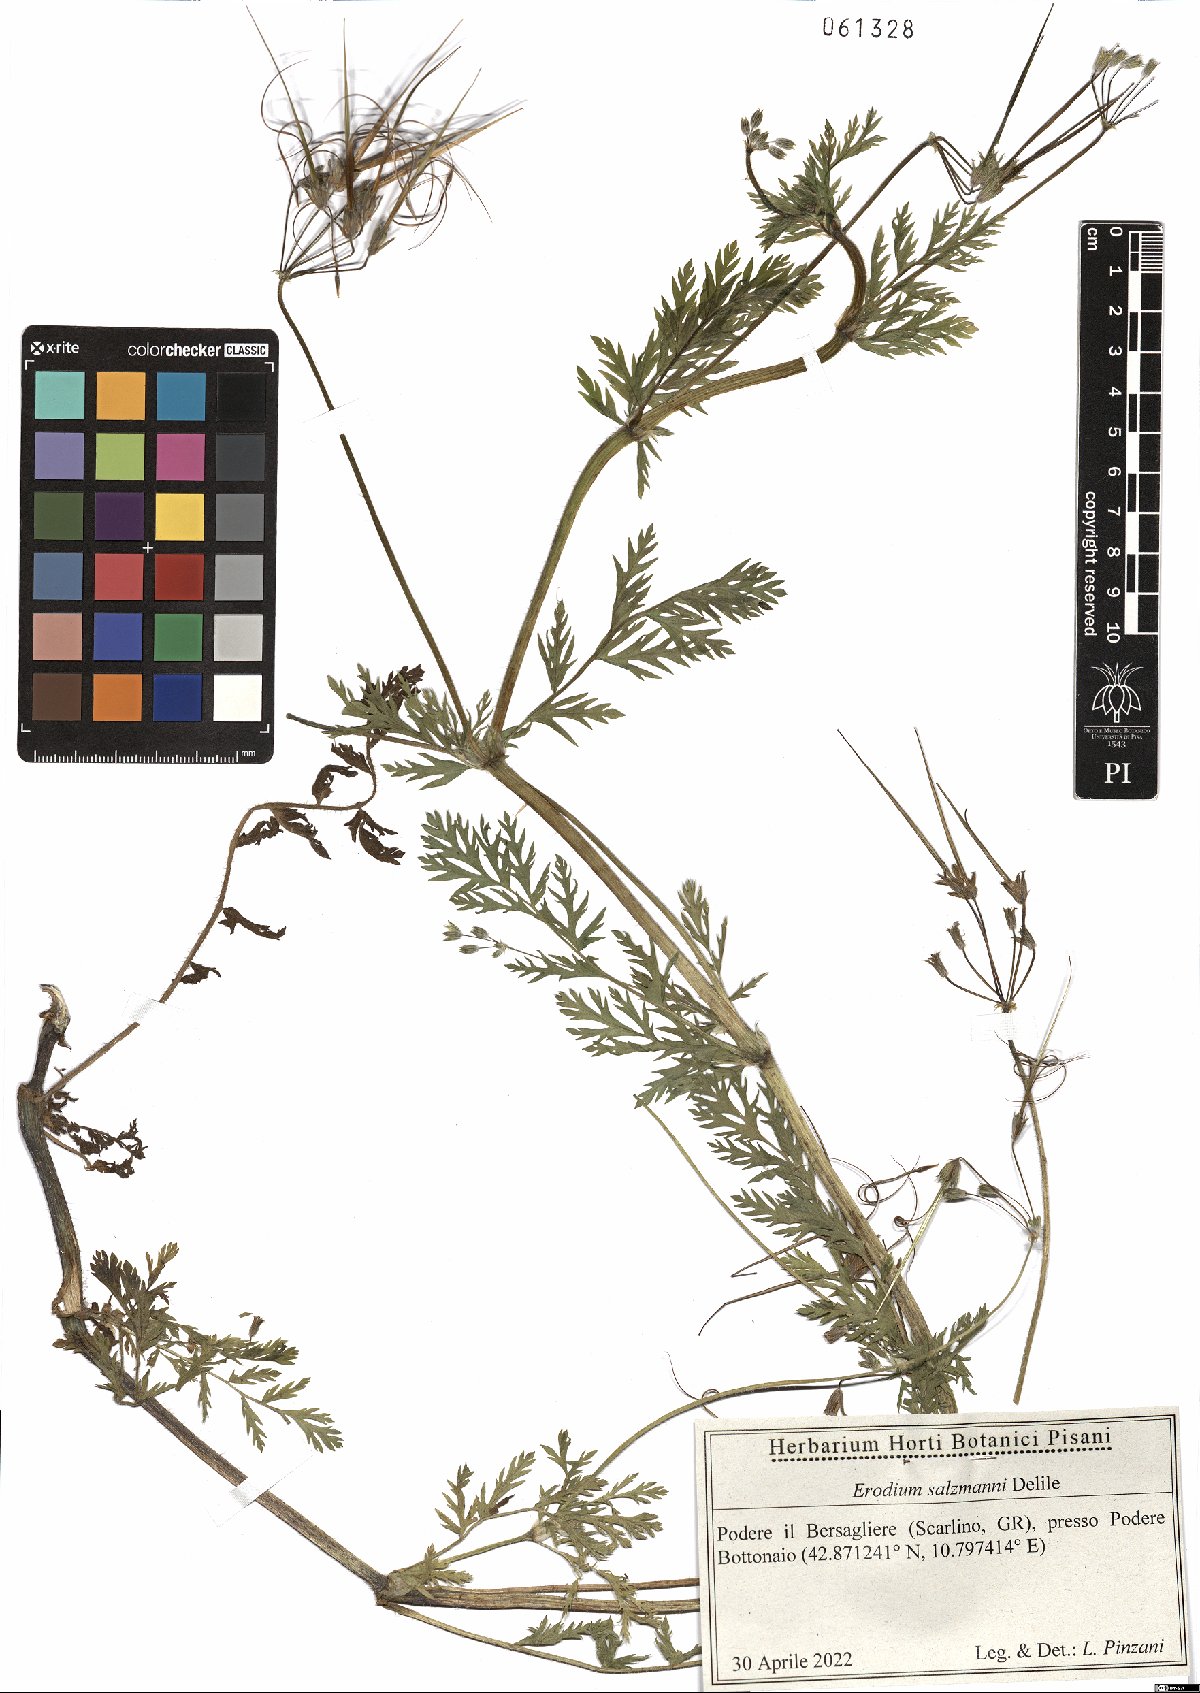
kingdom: Plantae
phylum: Tracheophyta
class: Magnoliopsida
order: Geraniales
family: Geraniaceae
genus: Erodium
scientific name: Erodium salzmannii
